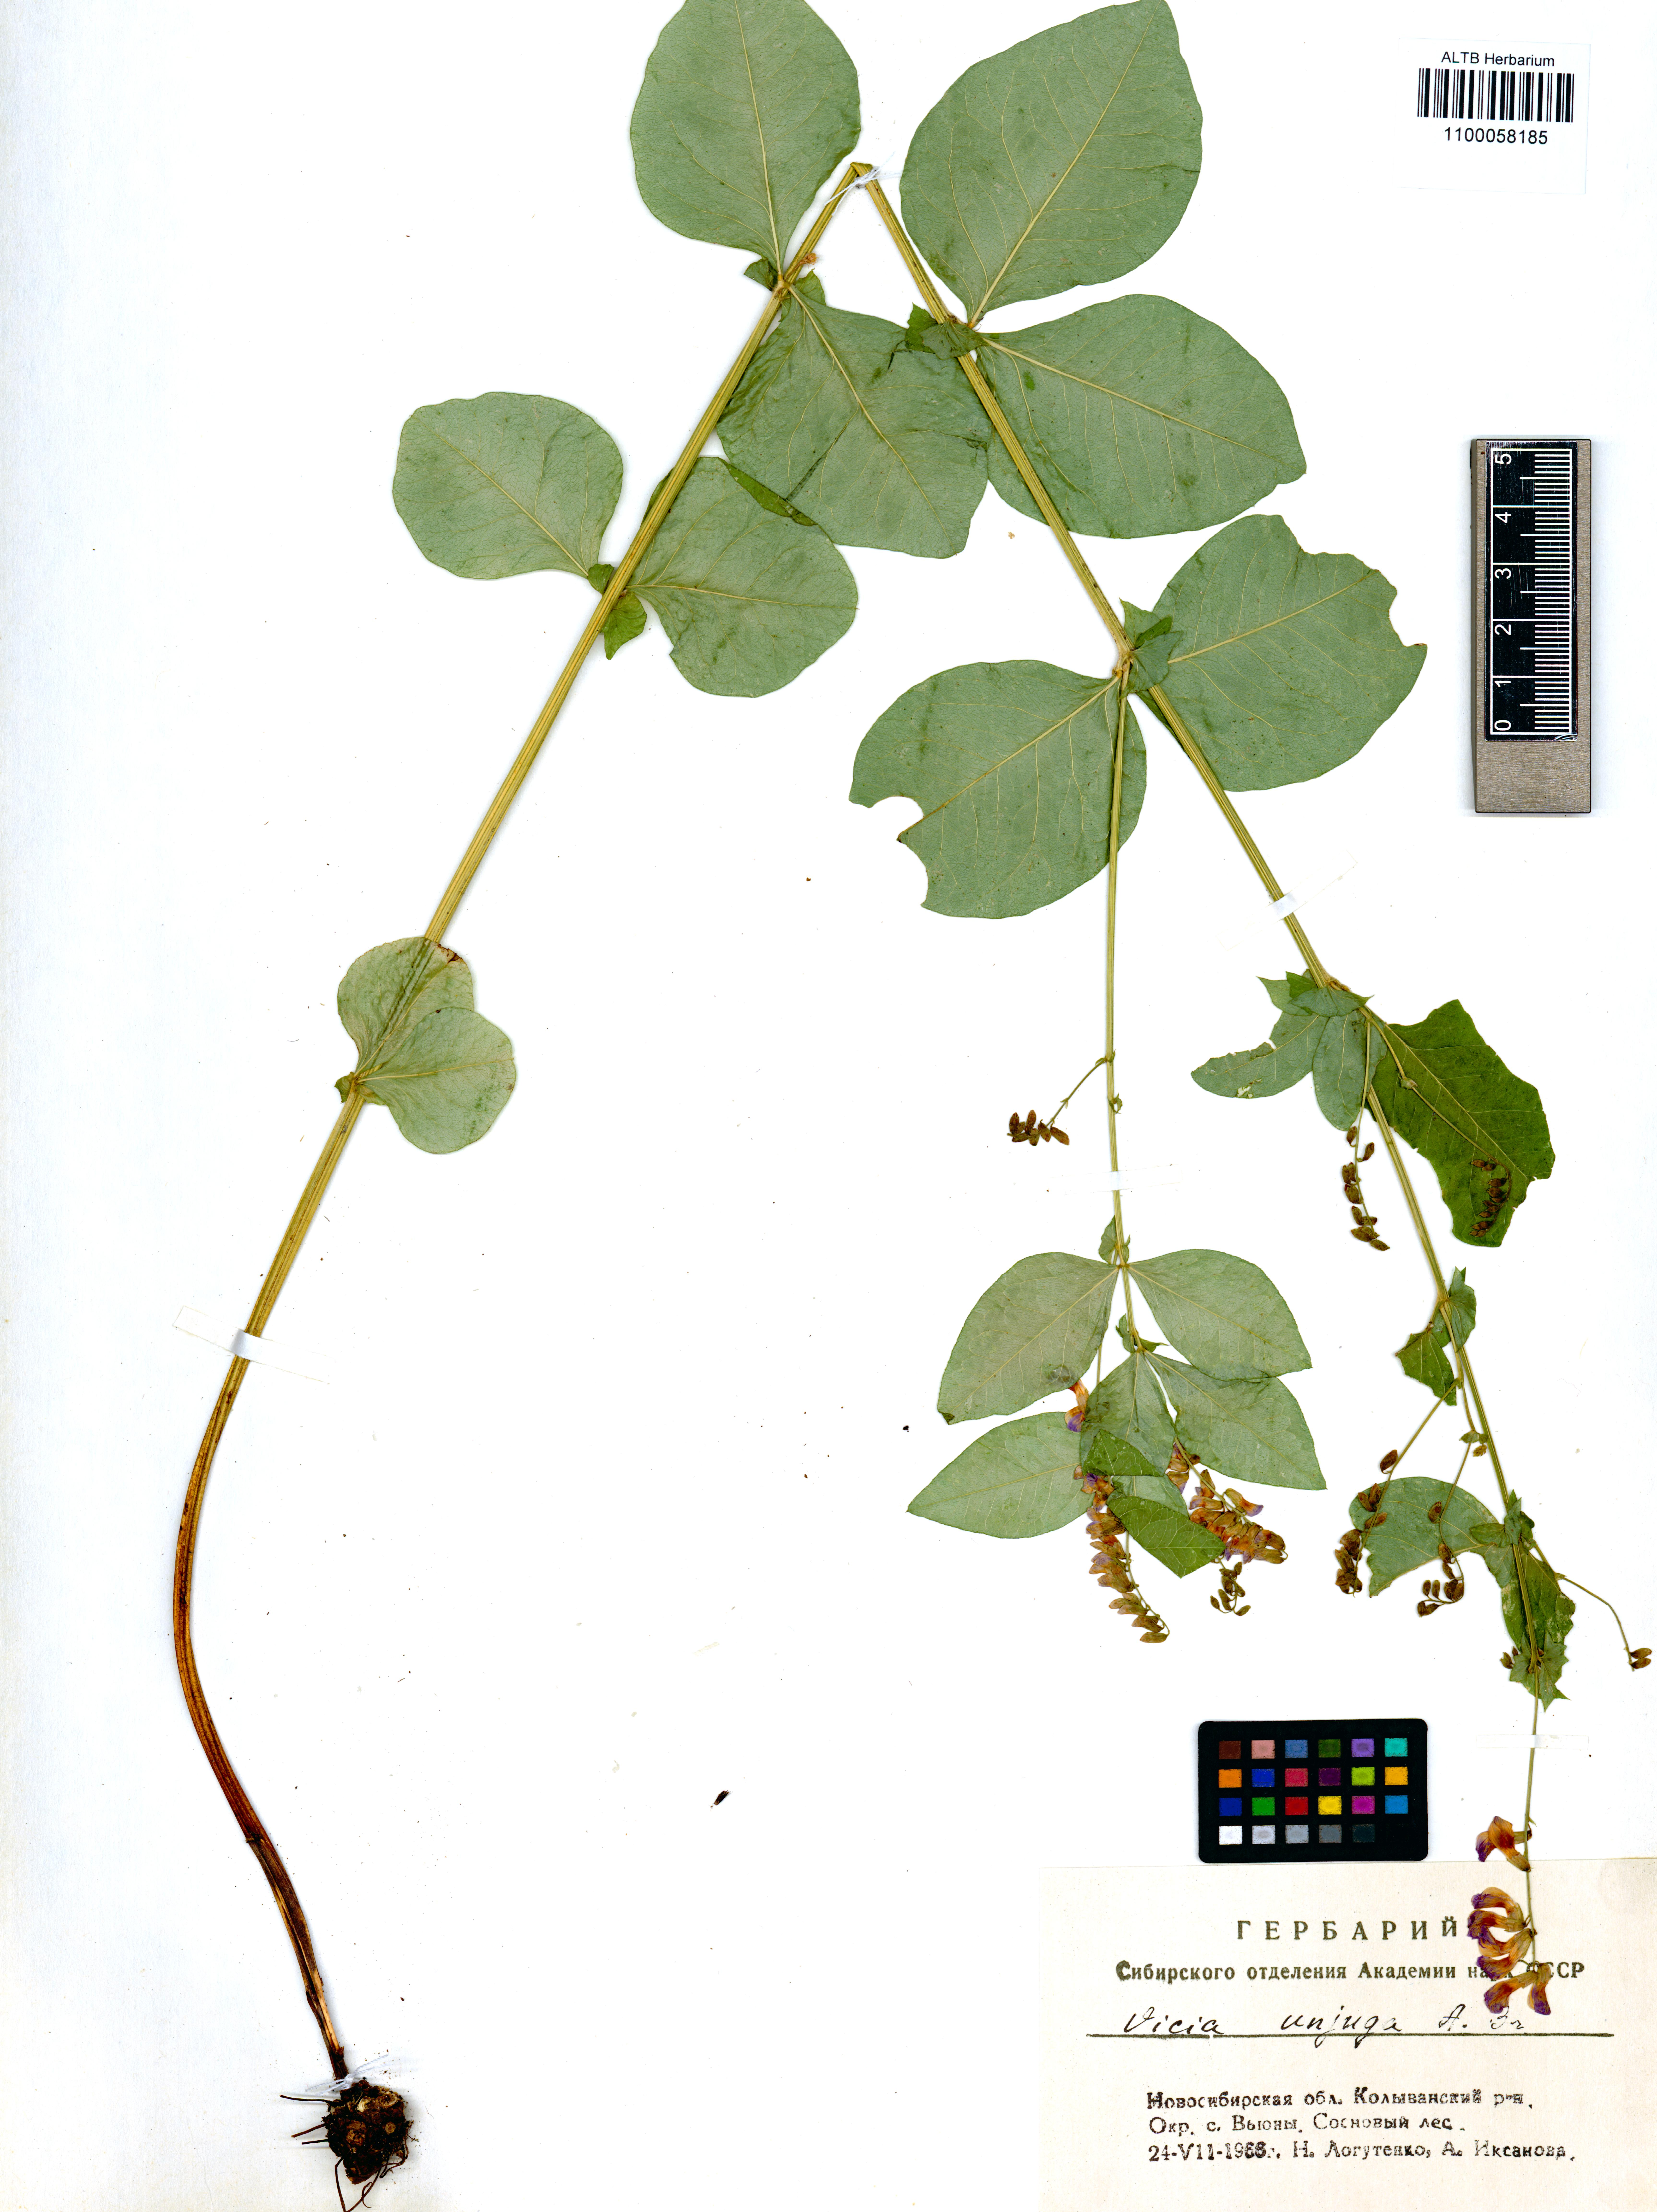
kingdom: Plantae
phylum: Tracheophyta
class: Magnoliopsida
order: Fabales
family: Fabaceae
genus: Vicia
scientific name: Vicia unijuga
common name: Two-leaf vetch
